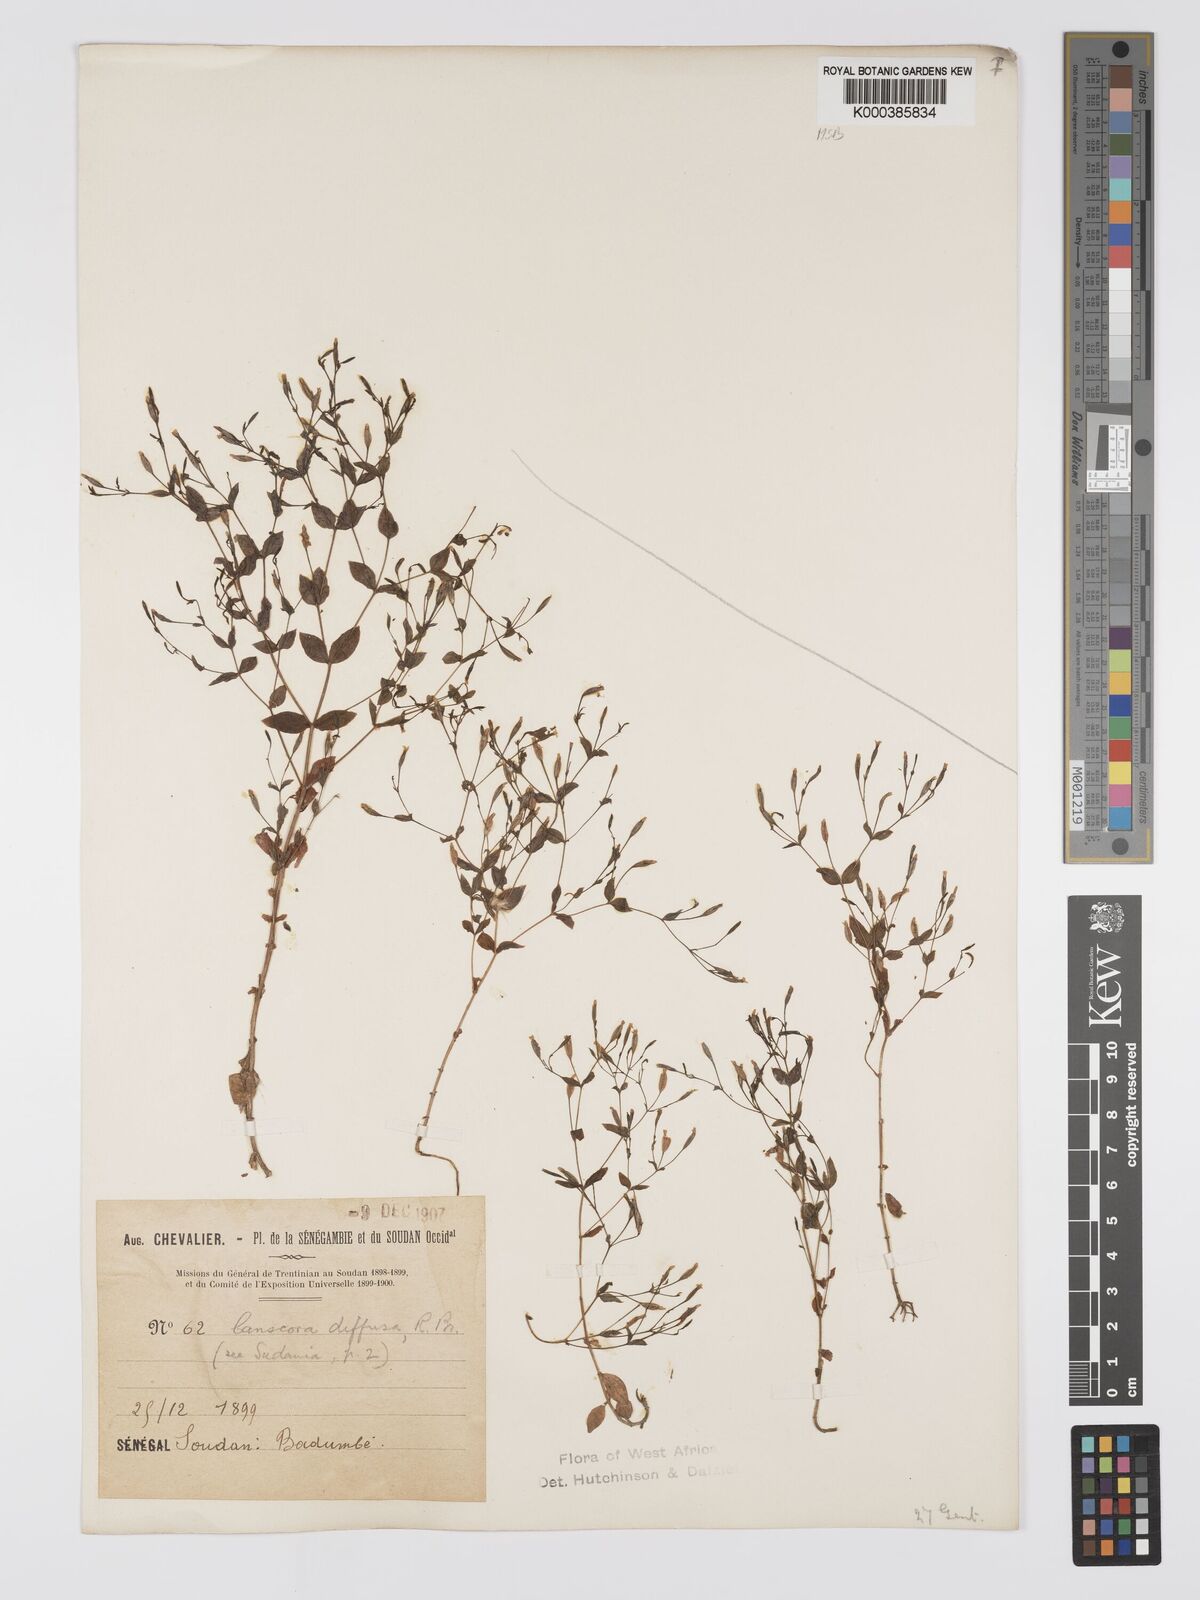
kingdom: Plantae
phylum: Tracheophyta
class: Magnoliopsida
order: Gentianales
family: Gentianaceae
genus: Canscora
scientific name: Canscora diffusa
